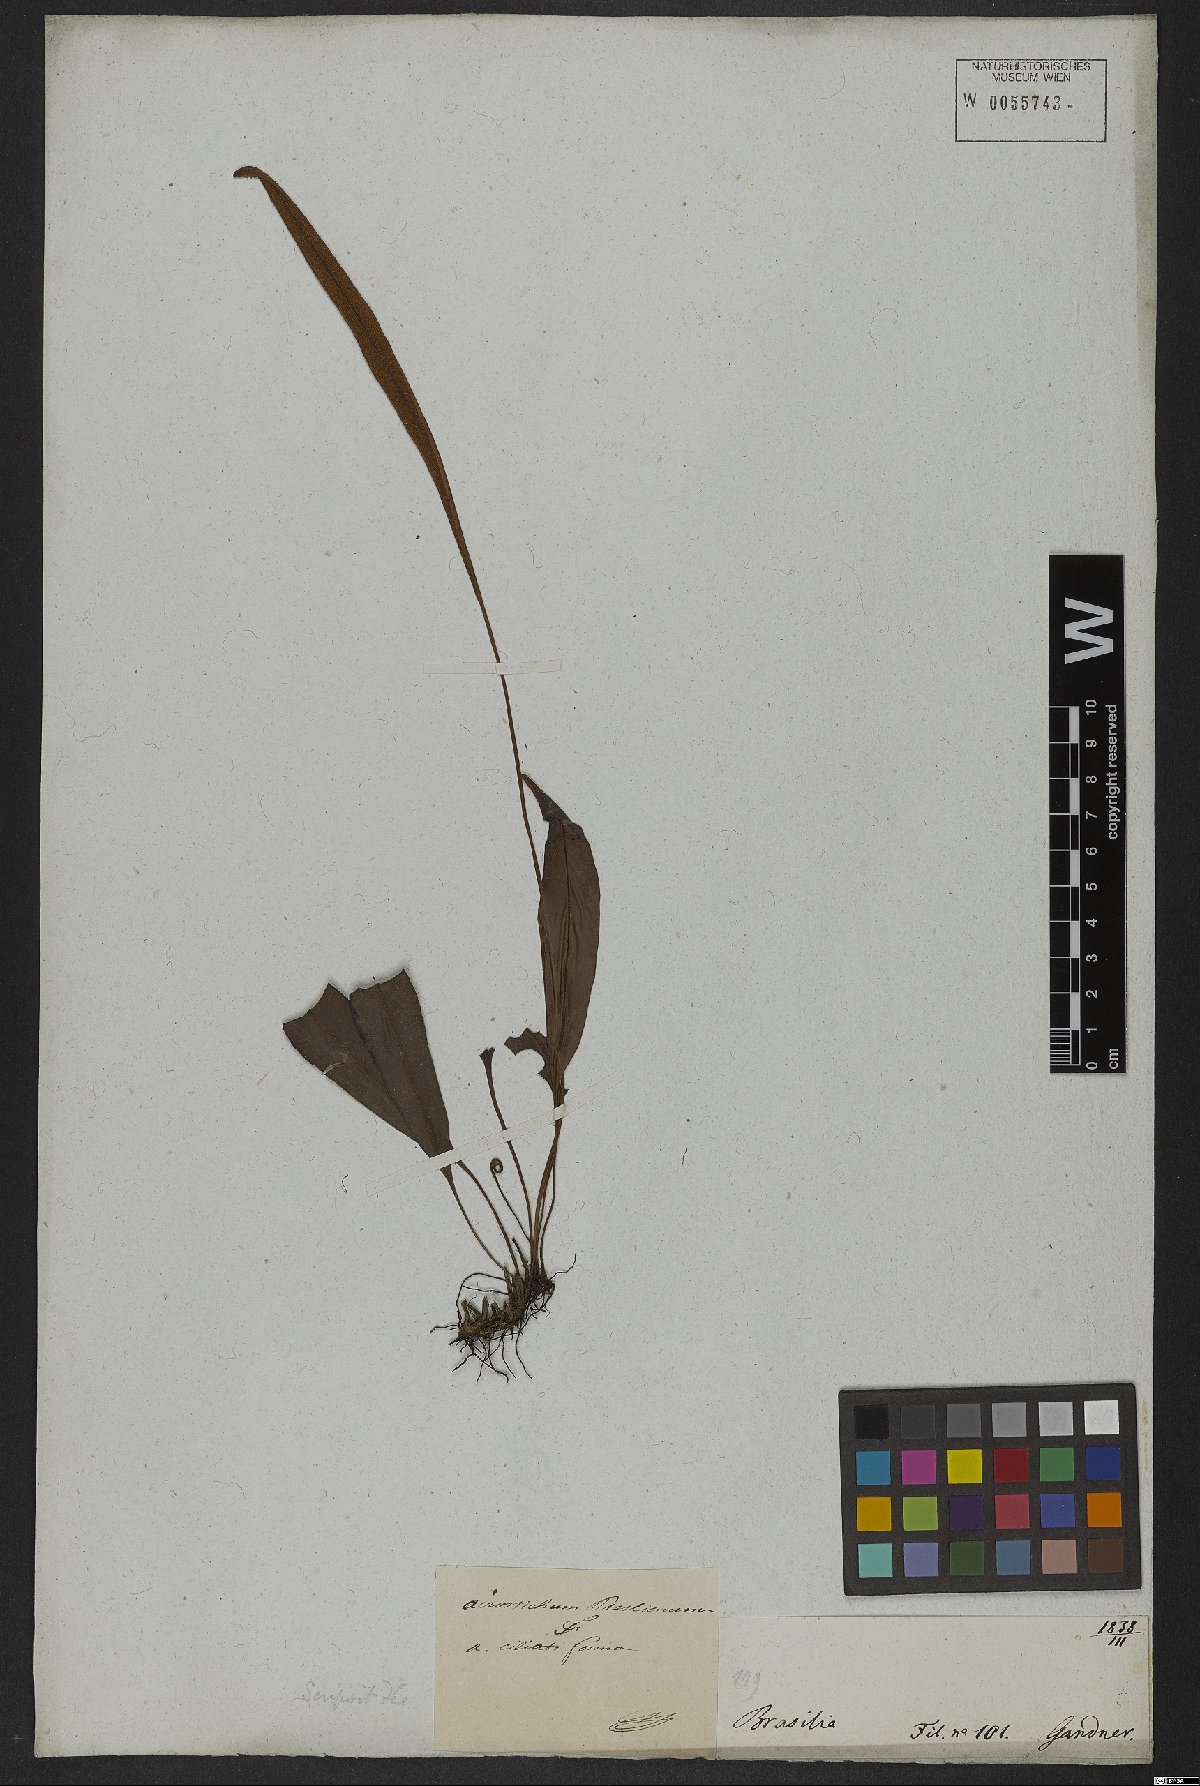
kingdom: Plantae
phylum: Tracheophyta
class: Polypodiopsida
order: Polypodiales
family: Dryopteridaceae
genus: Elaphoglossum
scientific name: Elaphoglossum ciliatum
